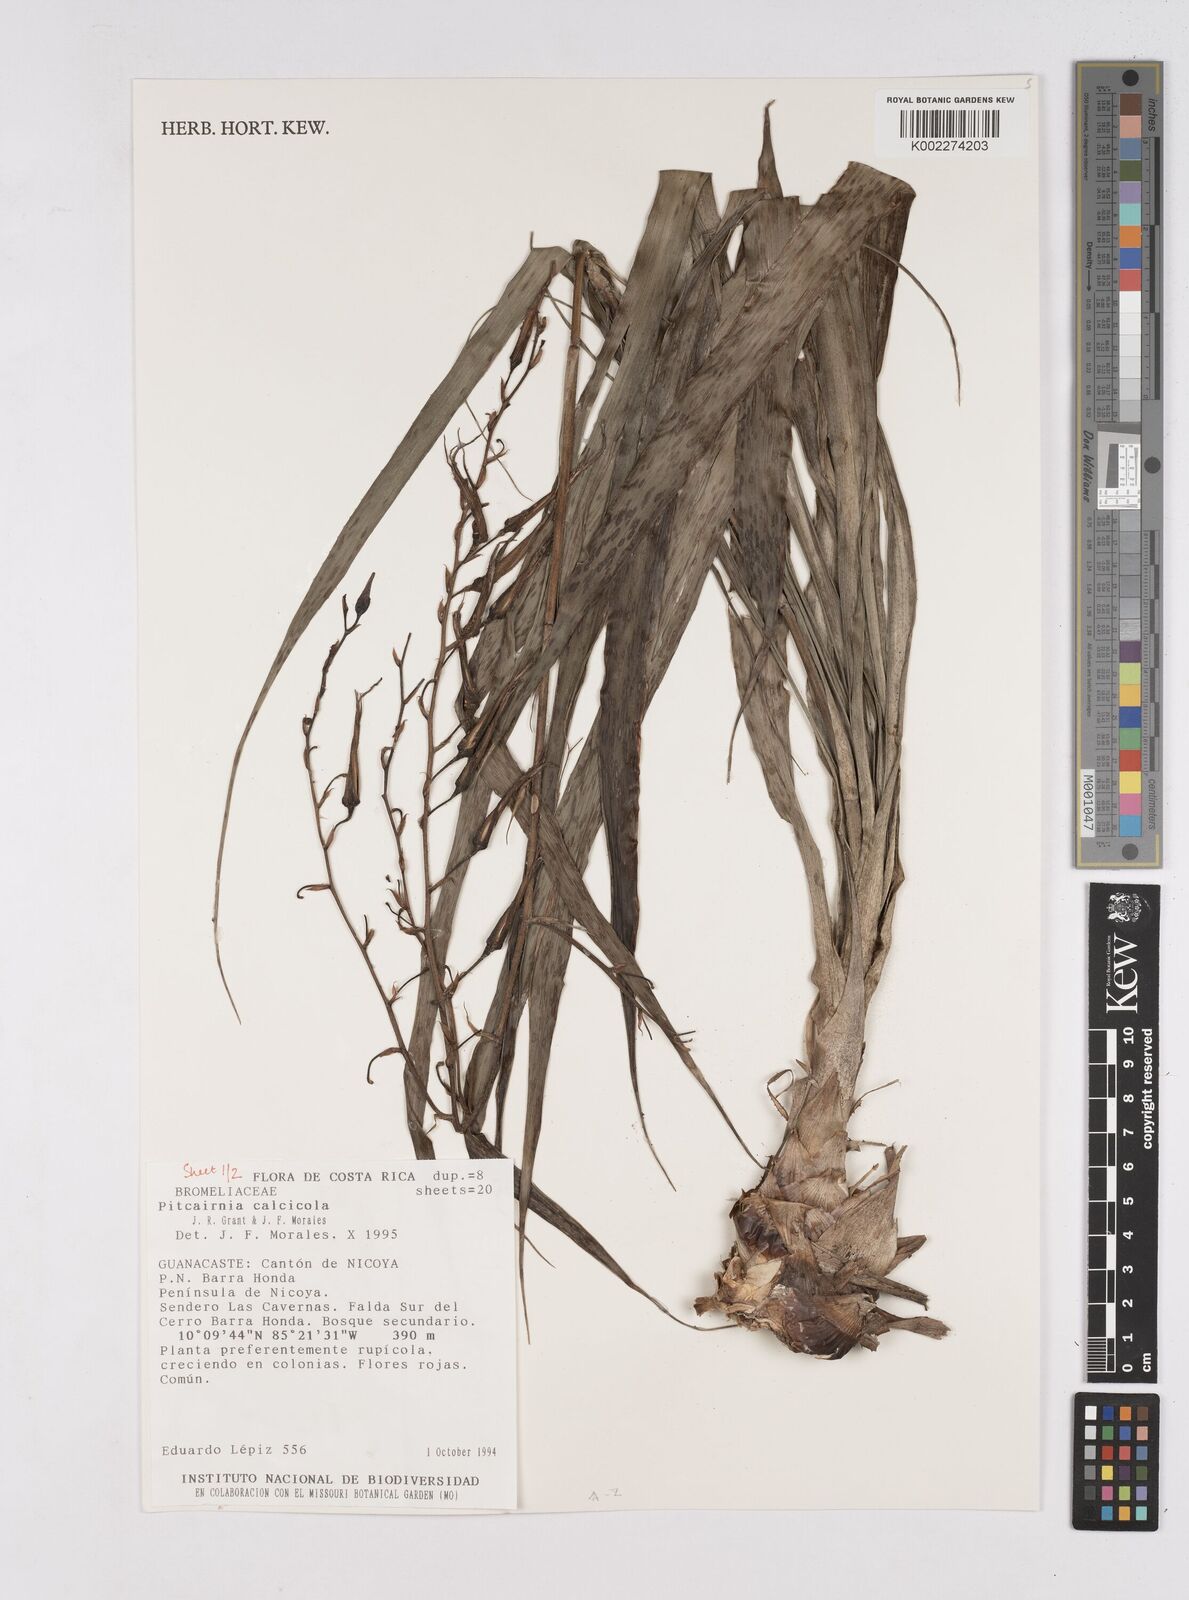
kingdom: Plantae
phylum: Tracheophyta
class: Liliopsida
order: Poales
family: Bromeliaceae
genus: Pitcairnia
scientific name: Pitcairnia calcicola
